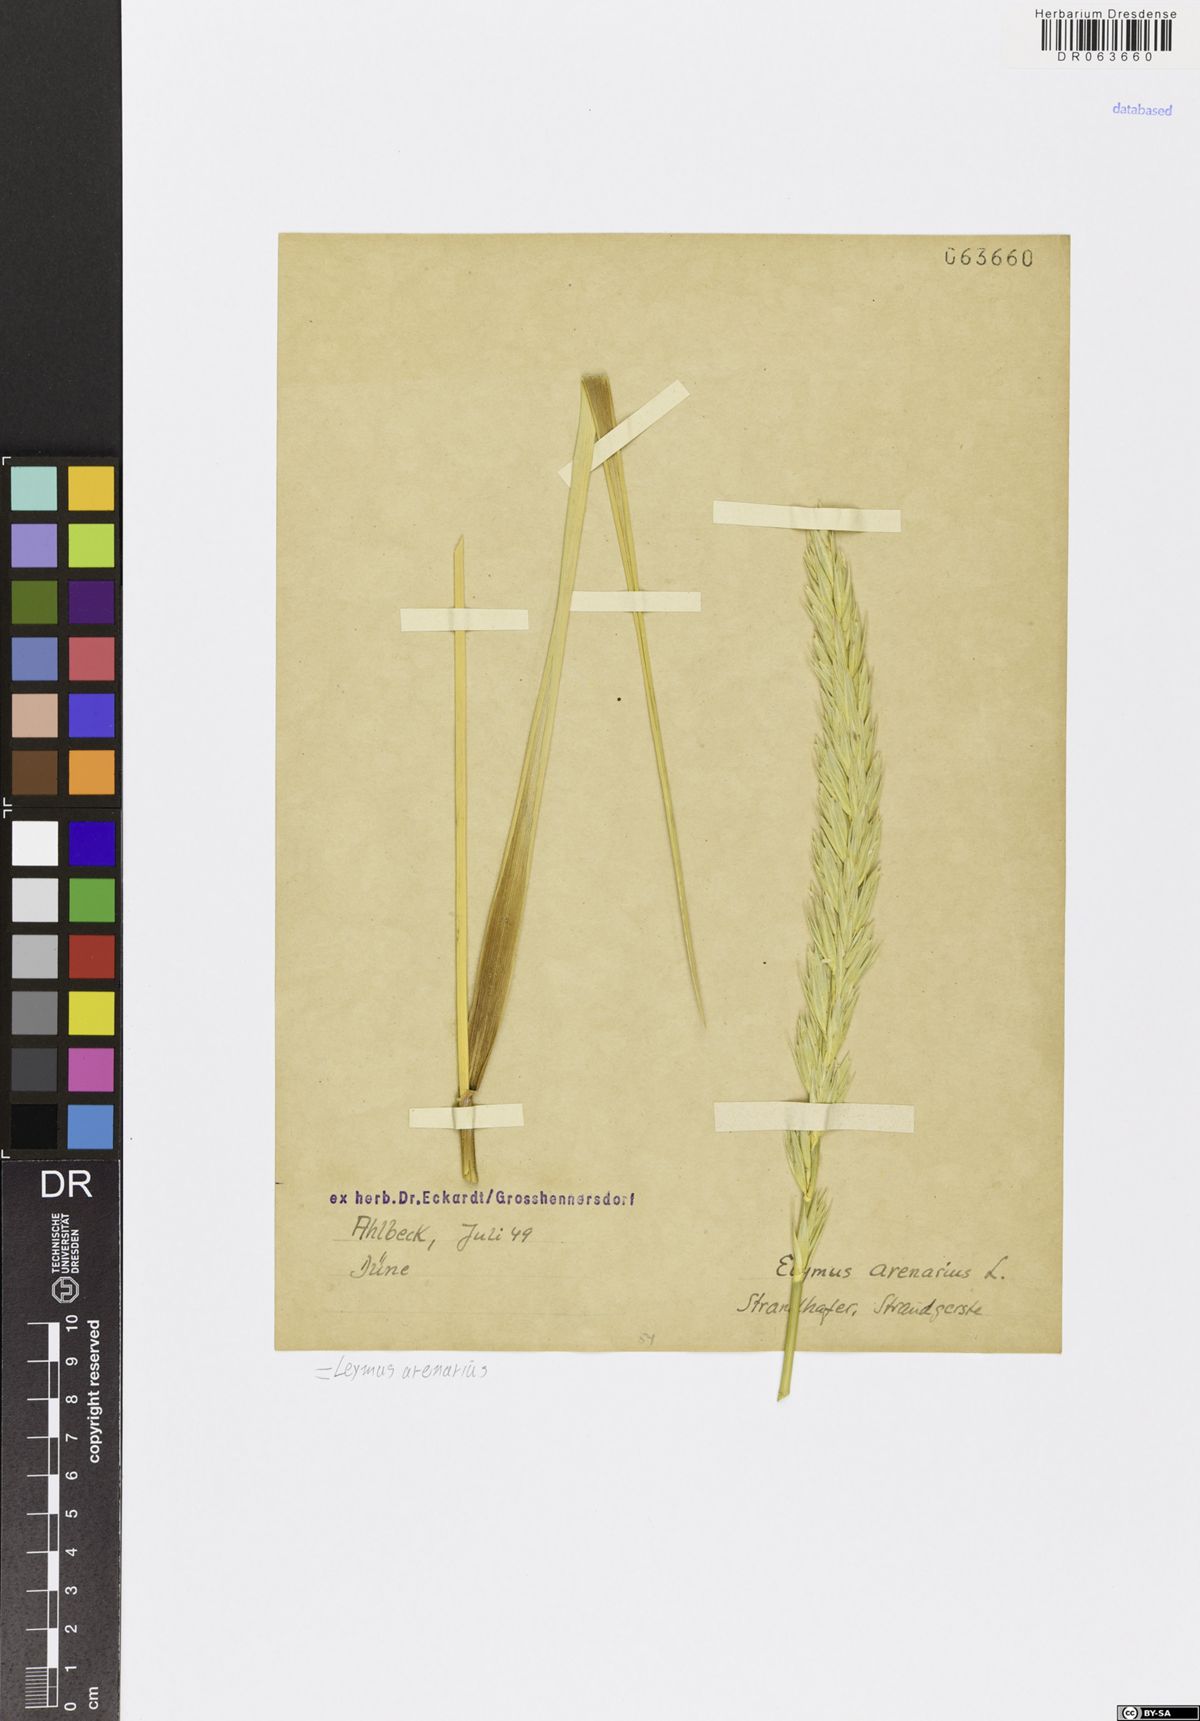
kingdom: Plantae
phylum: Tracheophyta
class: Liliopsida
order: Poales
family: Poaceae
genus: Leymus
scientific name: Leymus arenarius
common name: Lyme-grass
